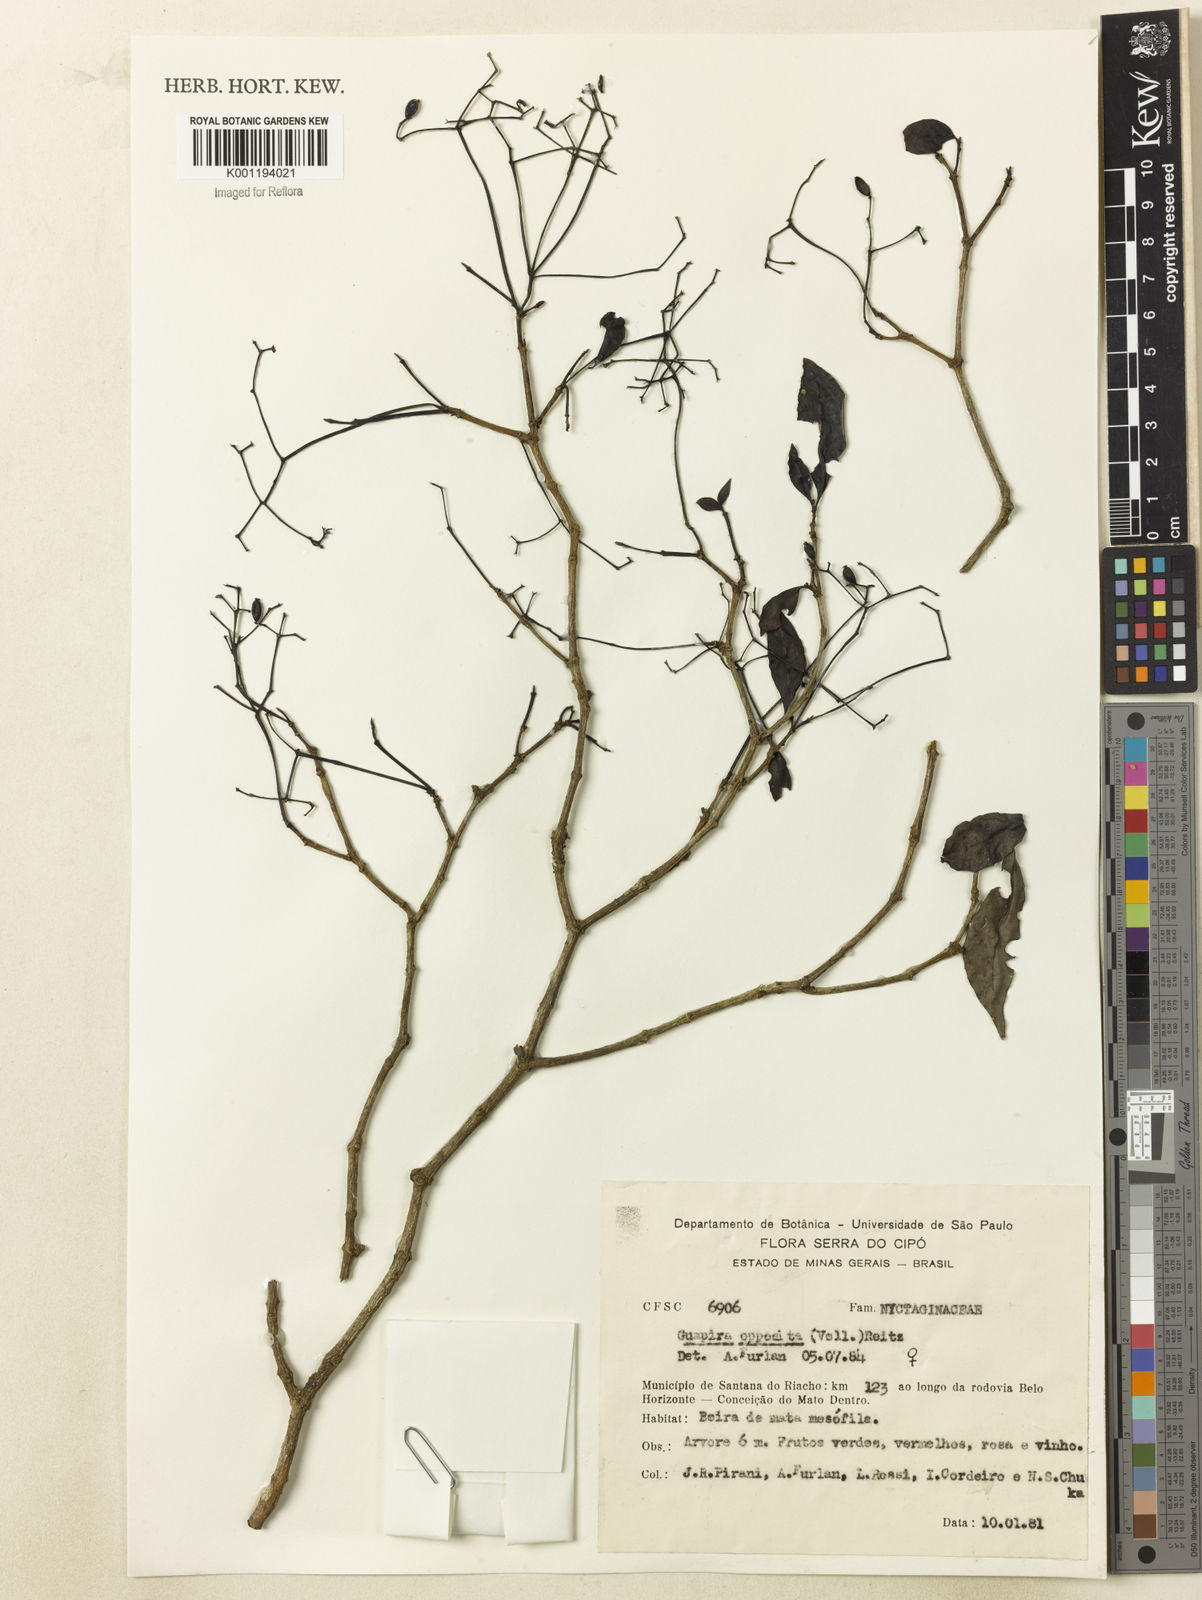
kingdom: Plantae
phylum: Tracheophyta
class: Magnoliopsida
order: Caryophyllales
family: Nyctaginaceae
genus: Guapira
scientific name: Guapira opposita
